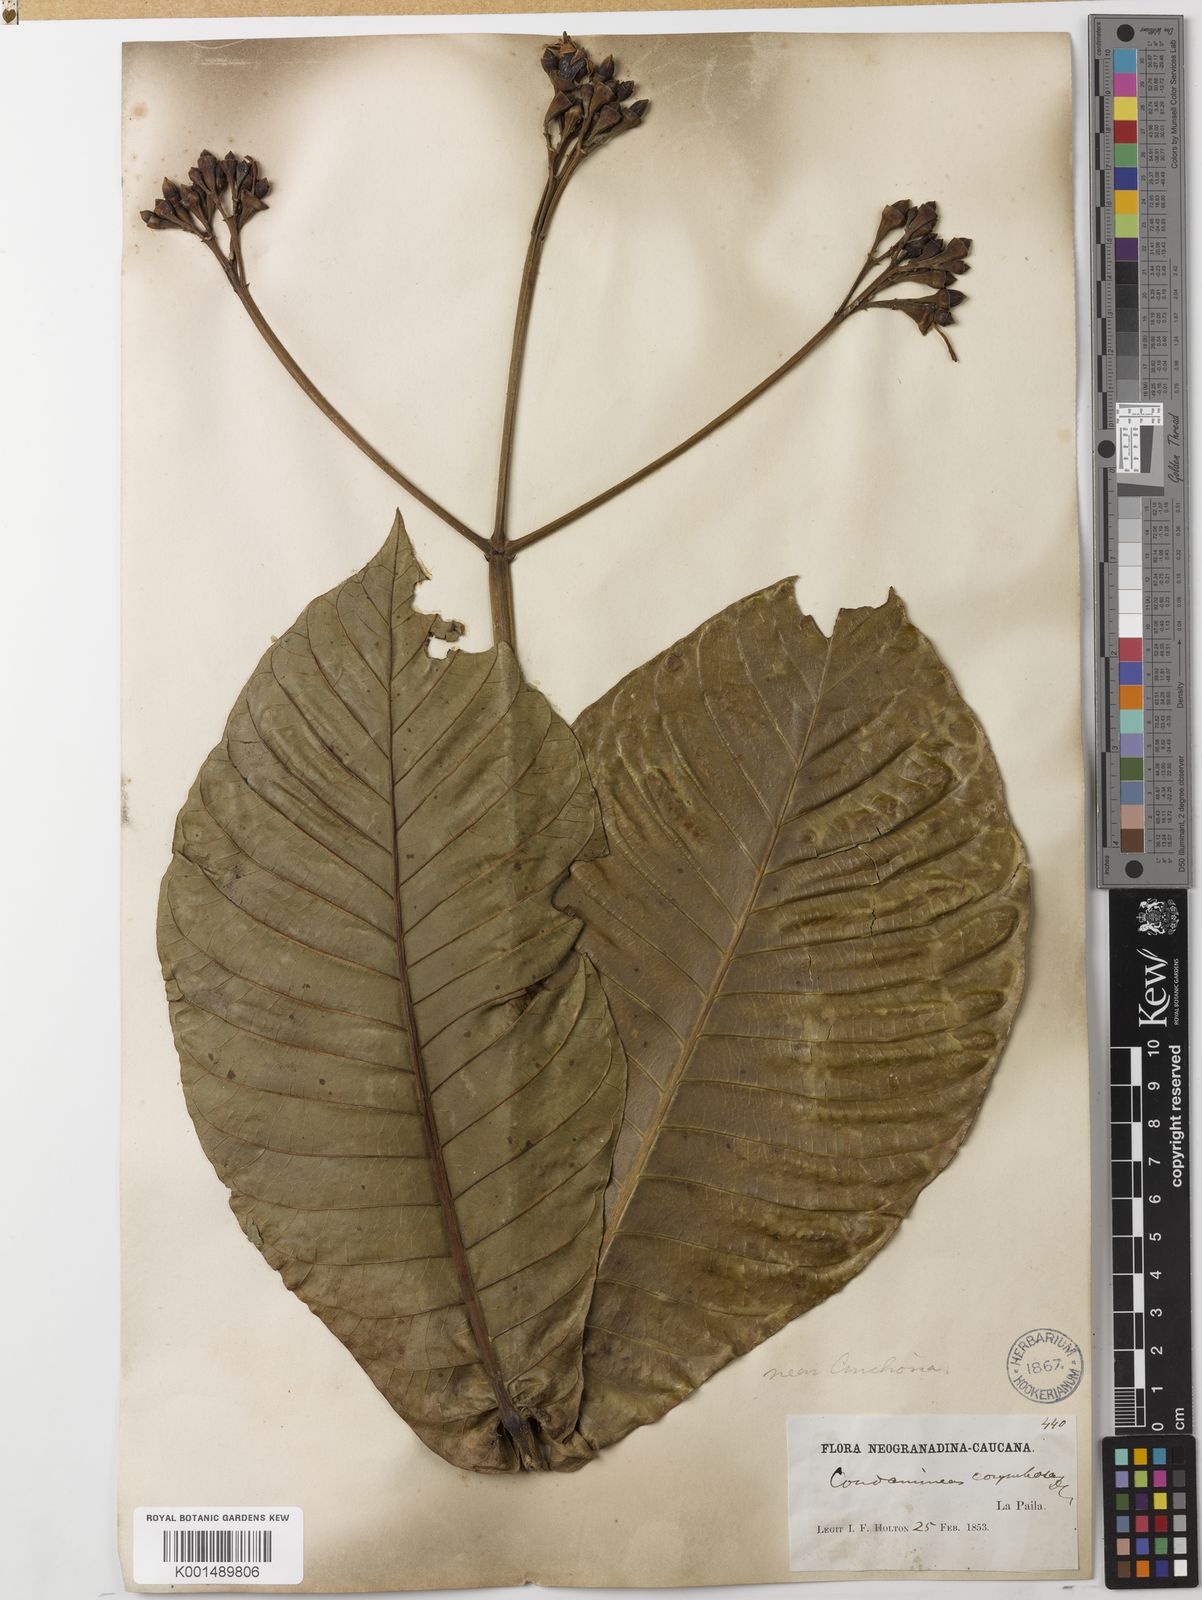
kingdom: Plantae
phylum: Tracheophyta
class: Magnoliopsida
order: Gentianales
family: Rubiaceae
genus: Condaminea
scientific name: Condaminea corymbosa
